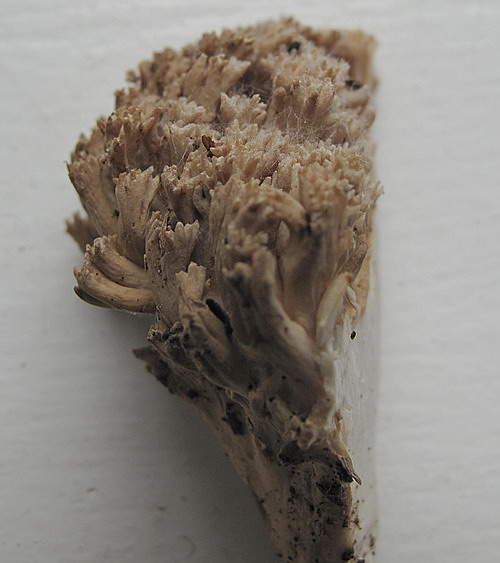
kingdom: Fungi
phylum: Basidiomycota
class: Agaricomycetes
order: Gomphales
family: Gomphaceae
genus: Ramaria
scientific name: Ramaria
